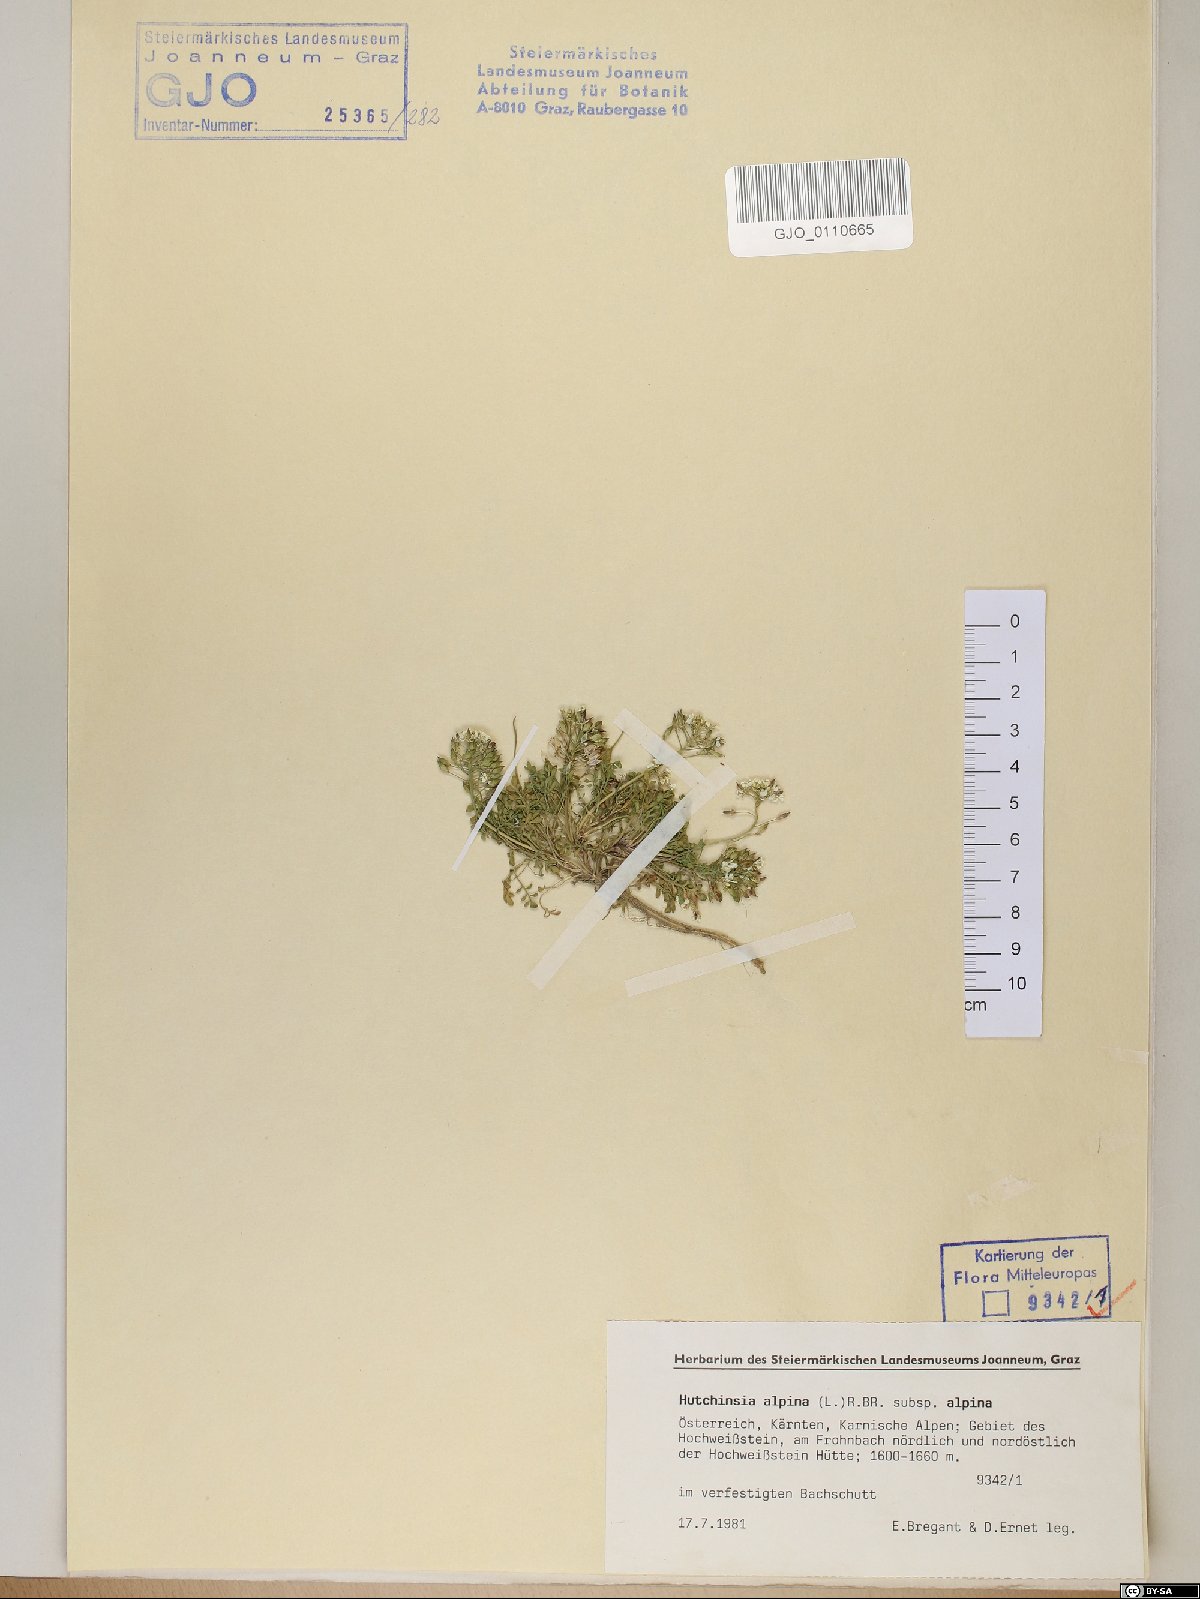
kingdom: Plantae
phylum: Tracheophyta
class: Magnoliopsida
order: Brassicales
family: Brassicaceae
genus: Hornungia
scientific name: Hornungia alpina
